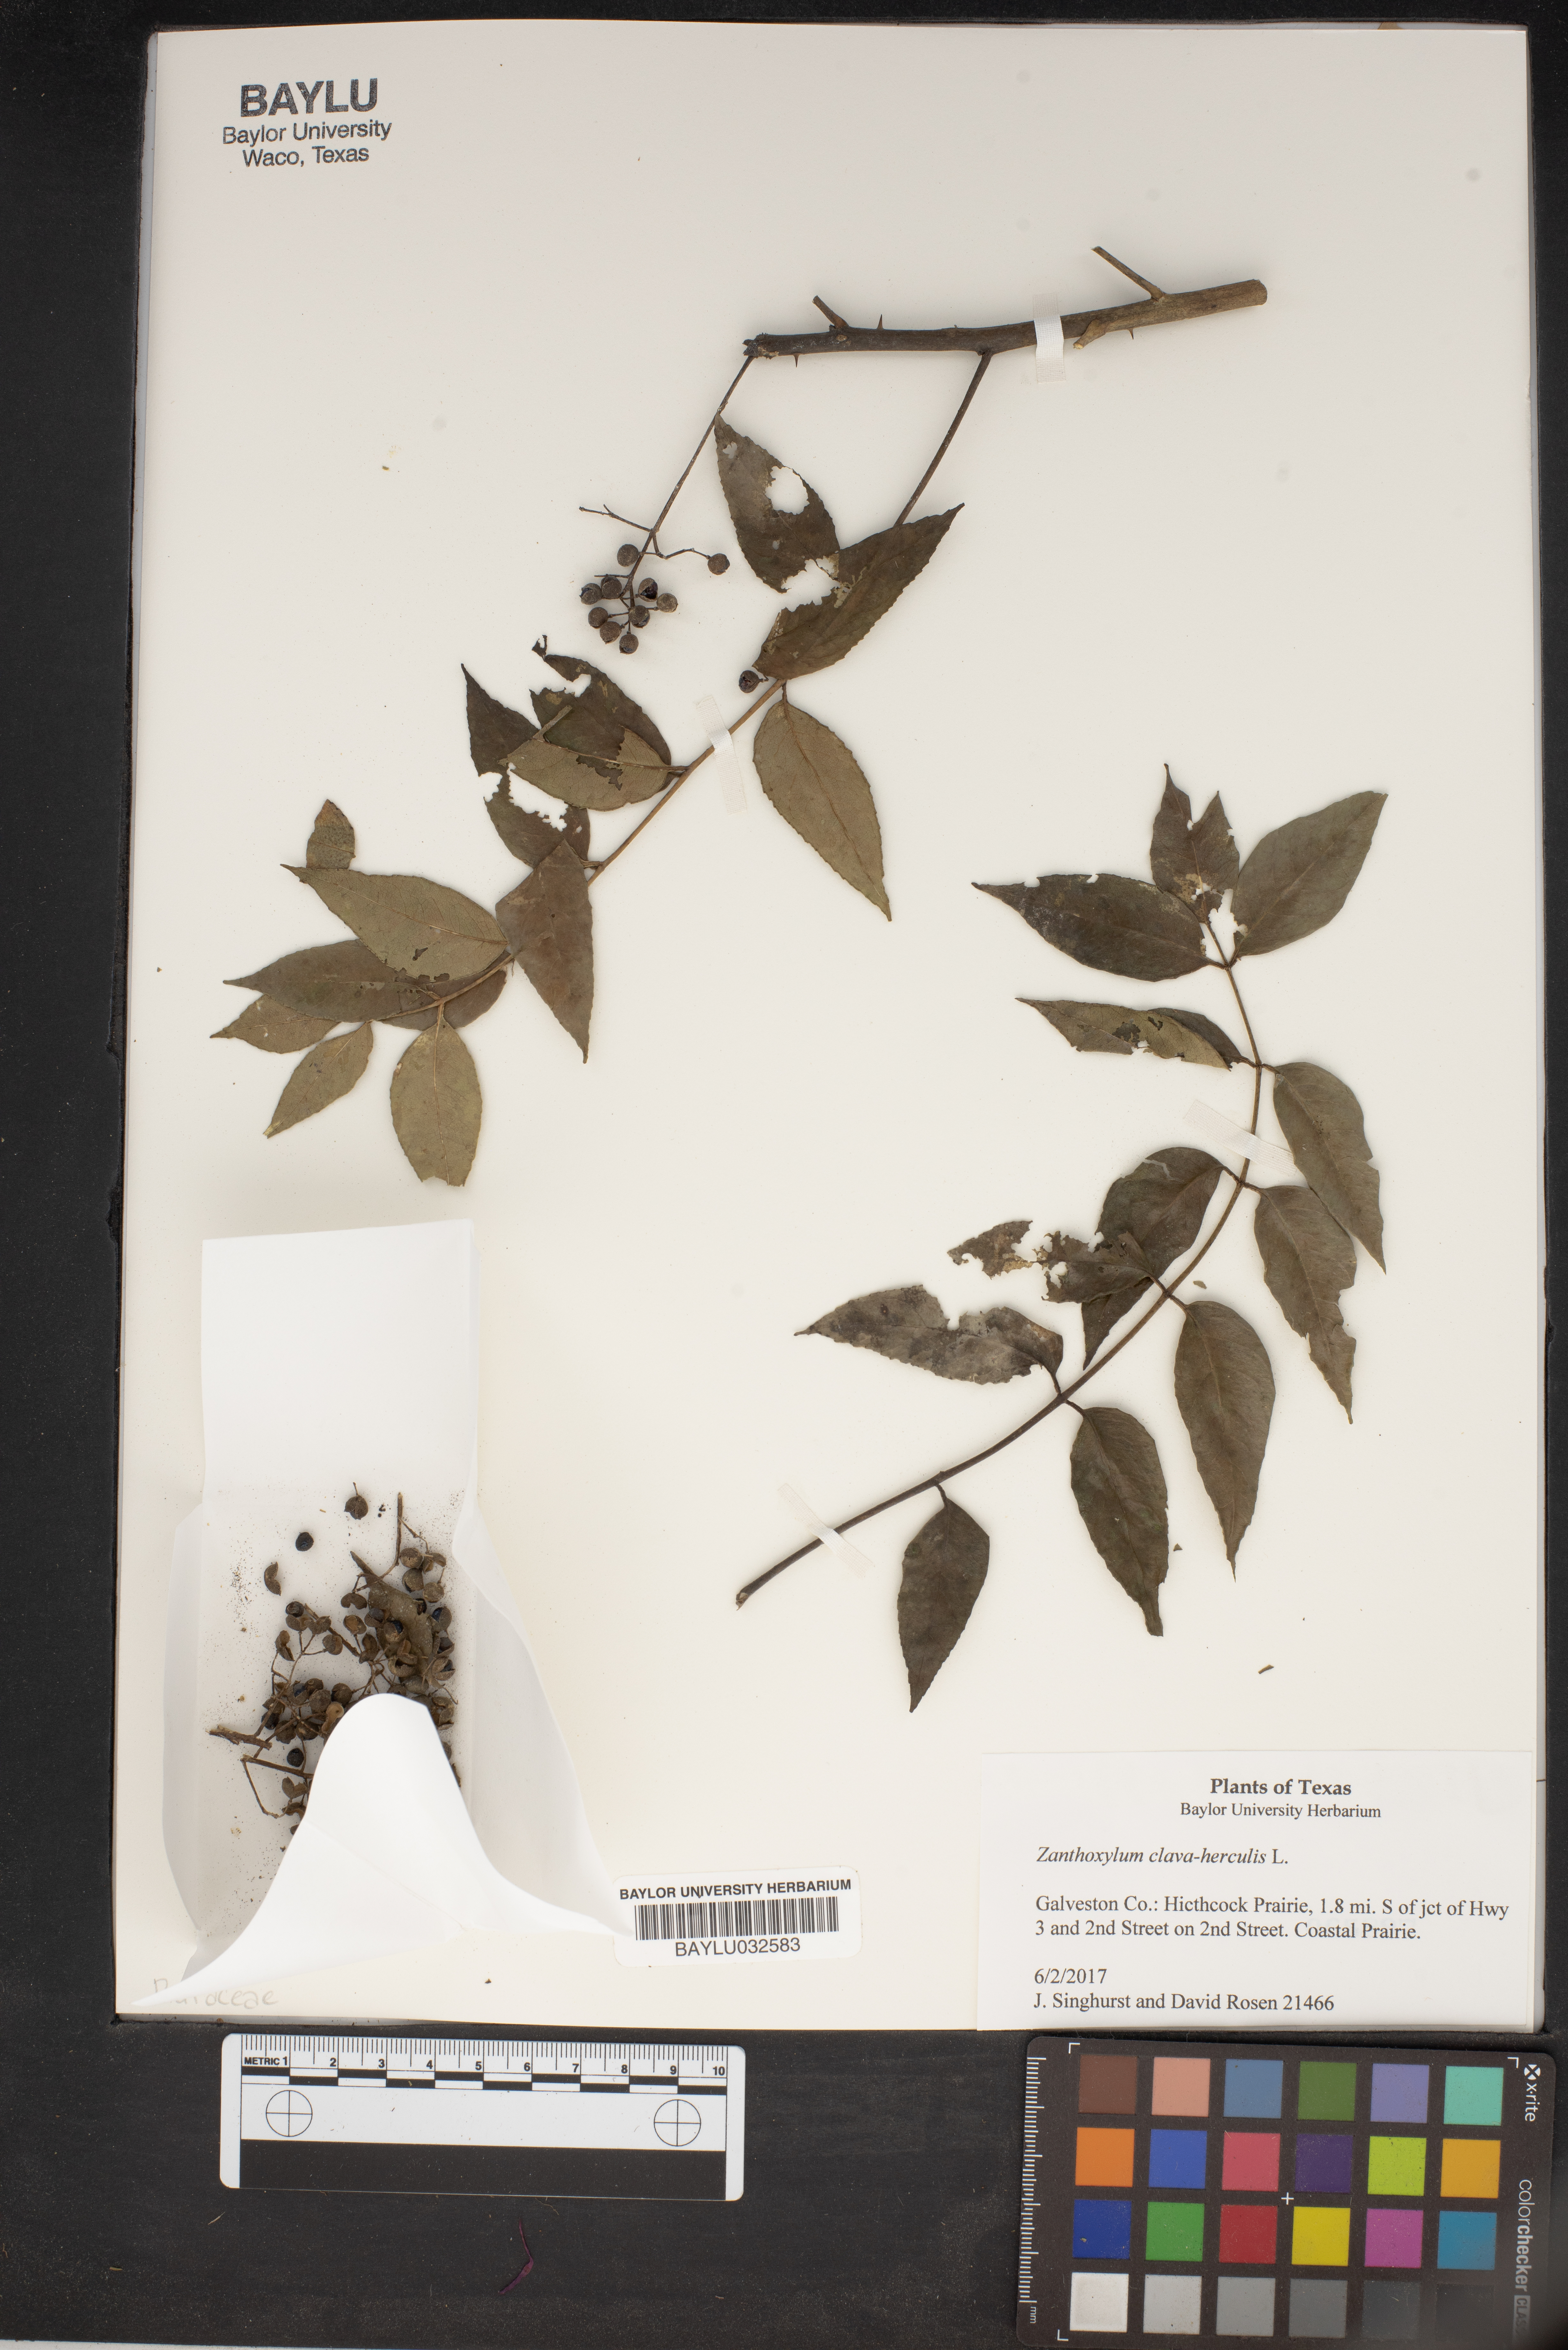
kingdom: Plantae
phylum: Tracheophyta
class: Magnoliopsida
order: Sapindales
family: Rutaceae
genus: Zanthoxylum
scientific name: Zanthoxylum avicennae
